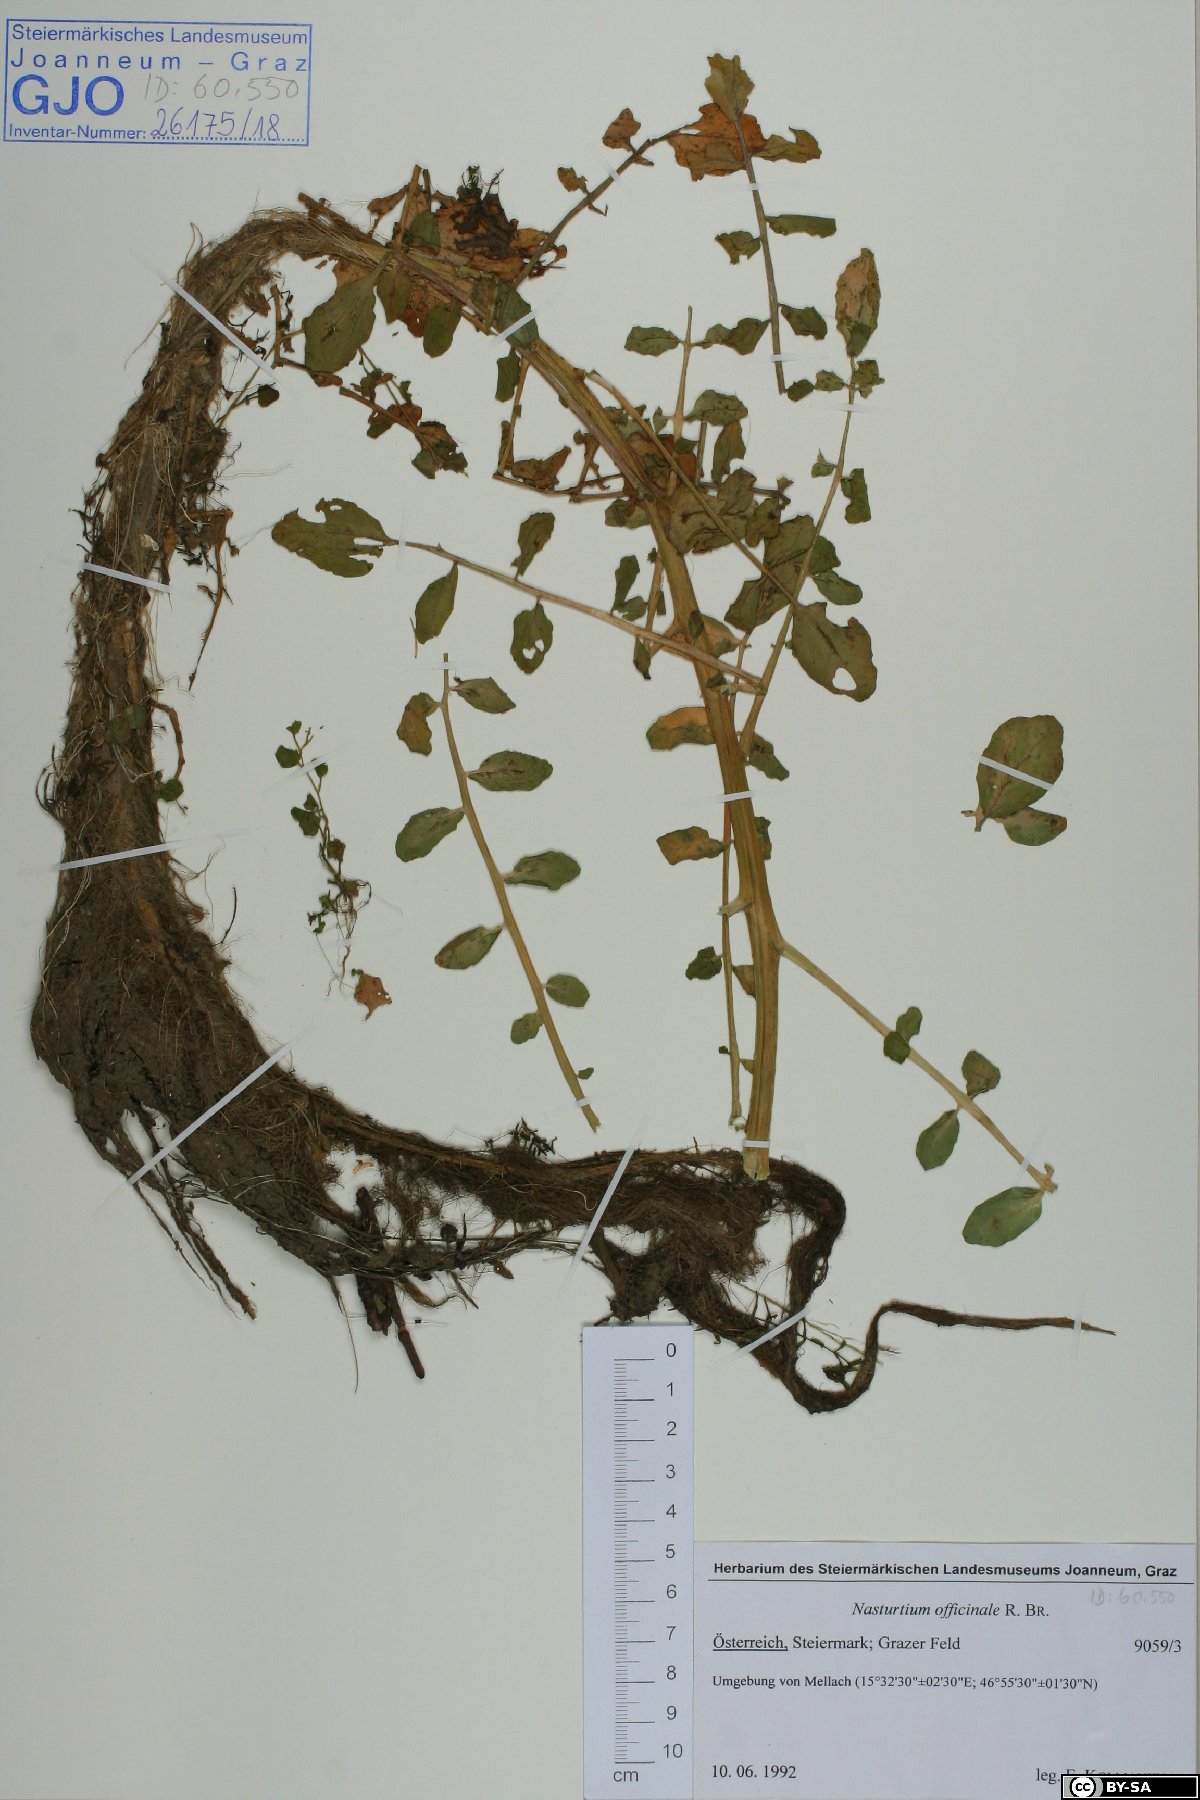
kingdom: Plantae
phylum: Tracheophyta
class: Magnoliopsida
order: Brassicales
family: Brassicaceae
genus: Nasturtium
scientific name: Nasturtium officinale
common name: Watercress
